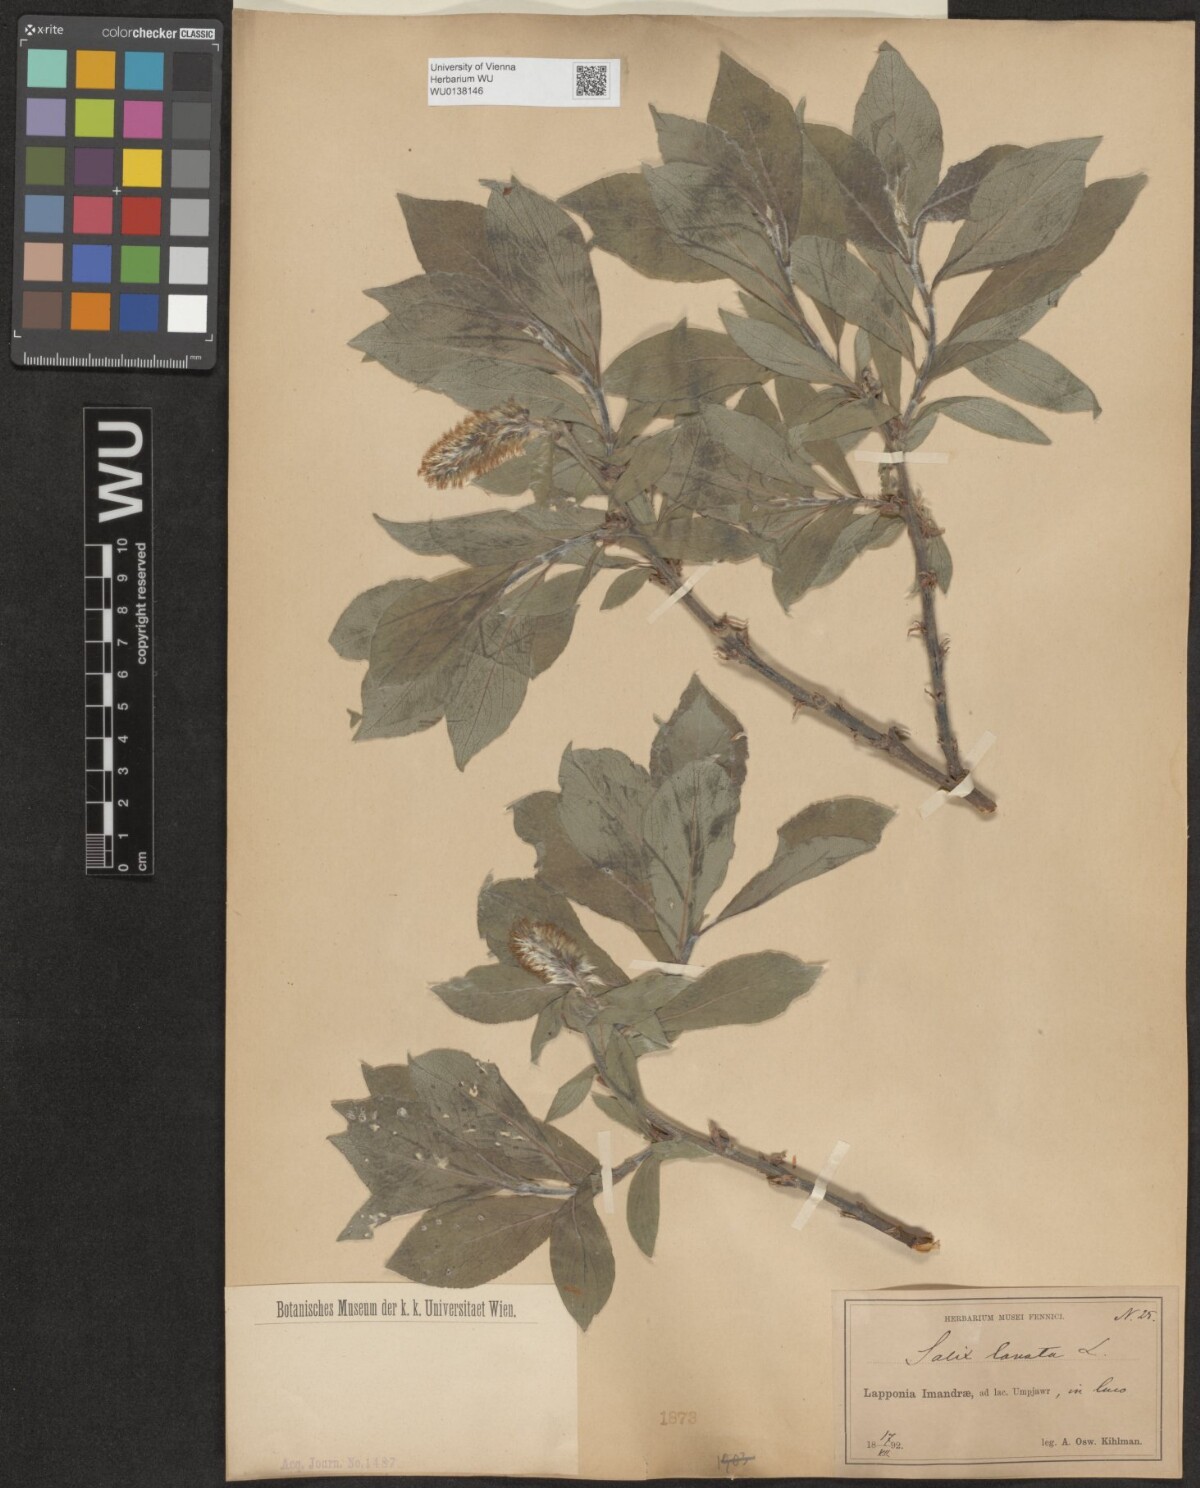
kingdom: Plantae
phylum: Tracheophyta
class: Magnoliopsida
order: Malpighiales
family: Salicaceae
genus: Salix
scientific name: Salix lanata
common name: Woolly willow
